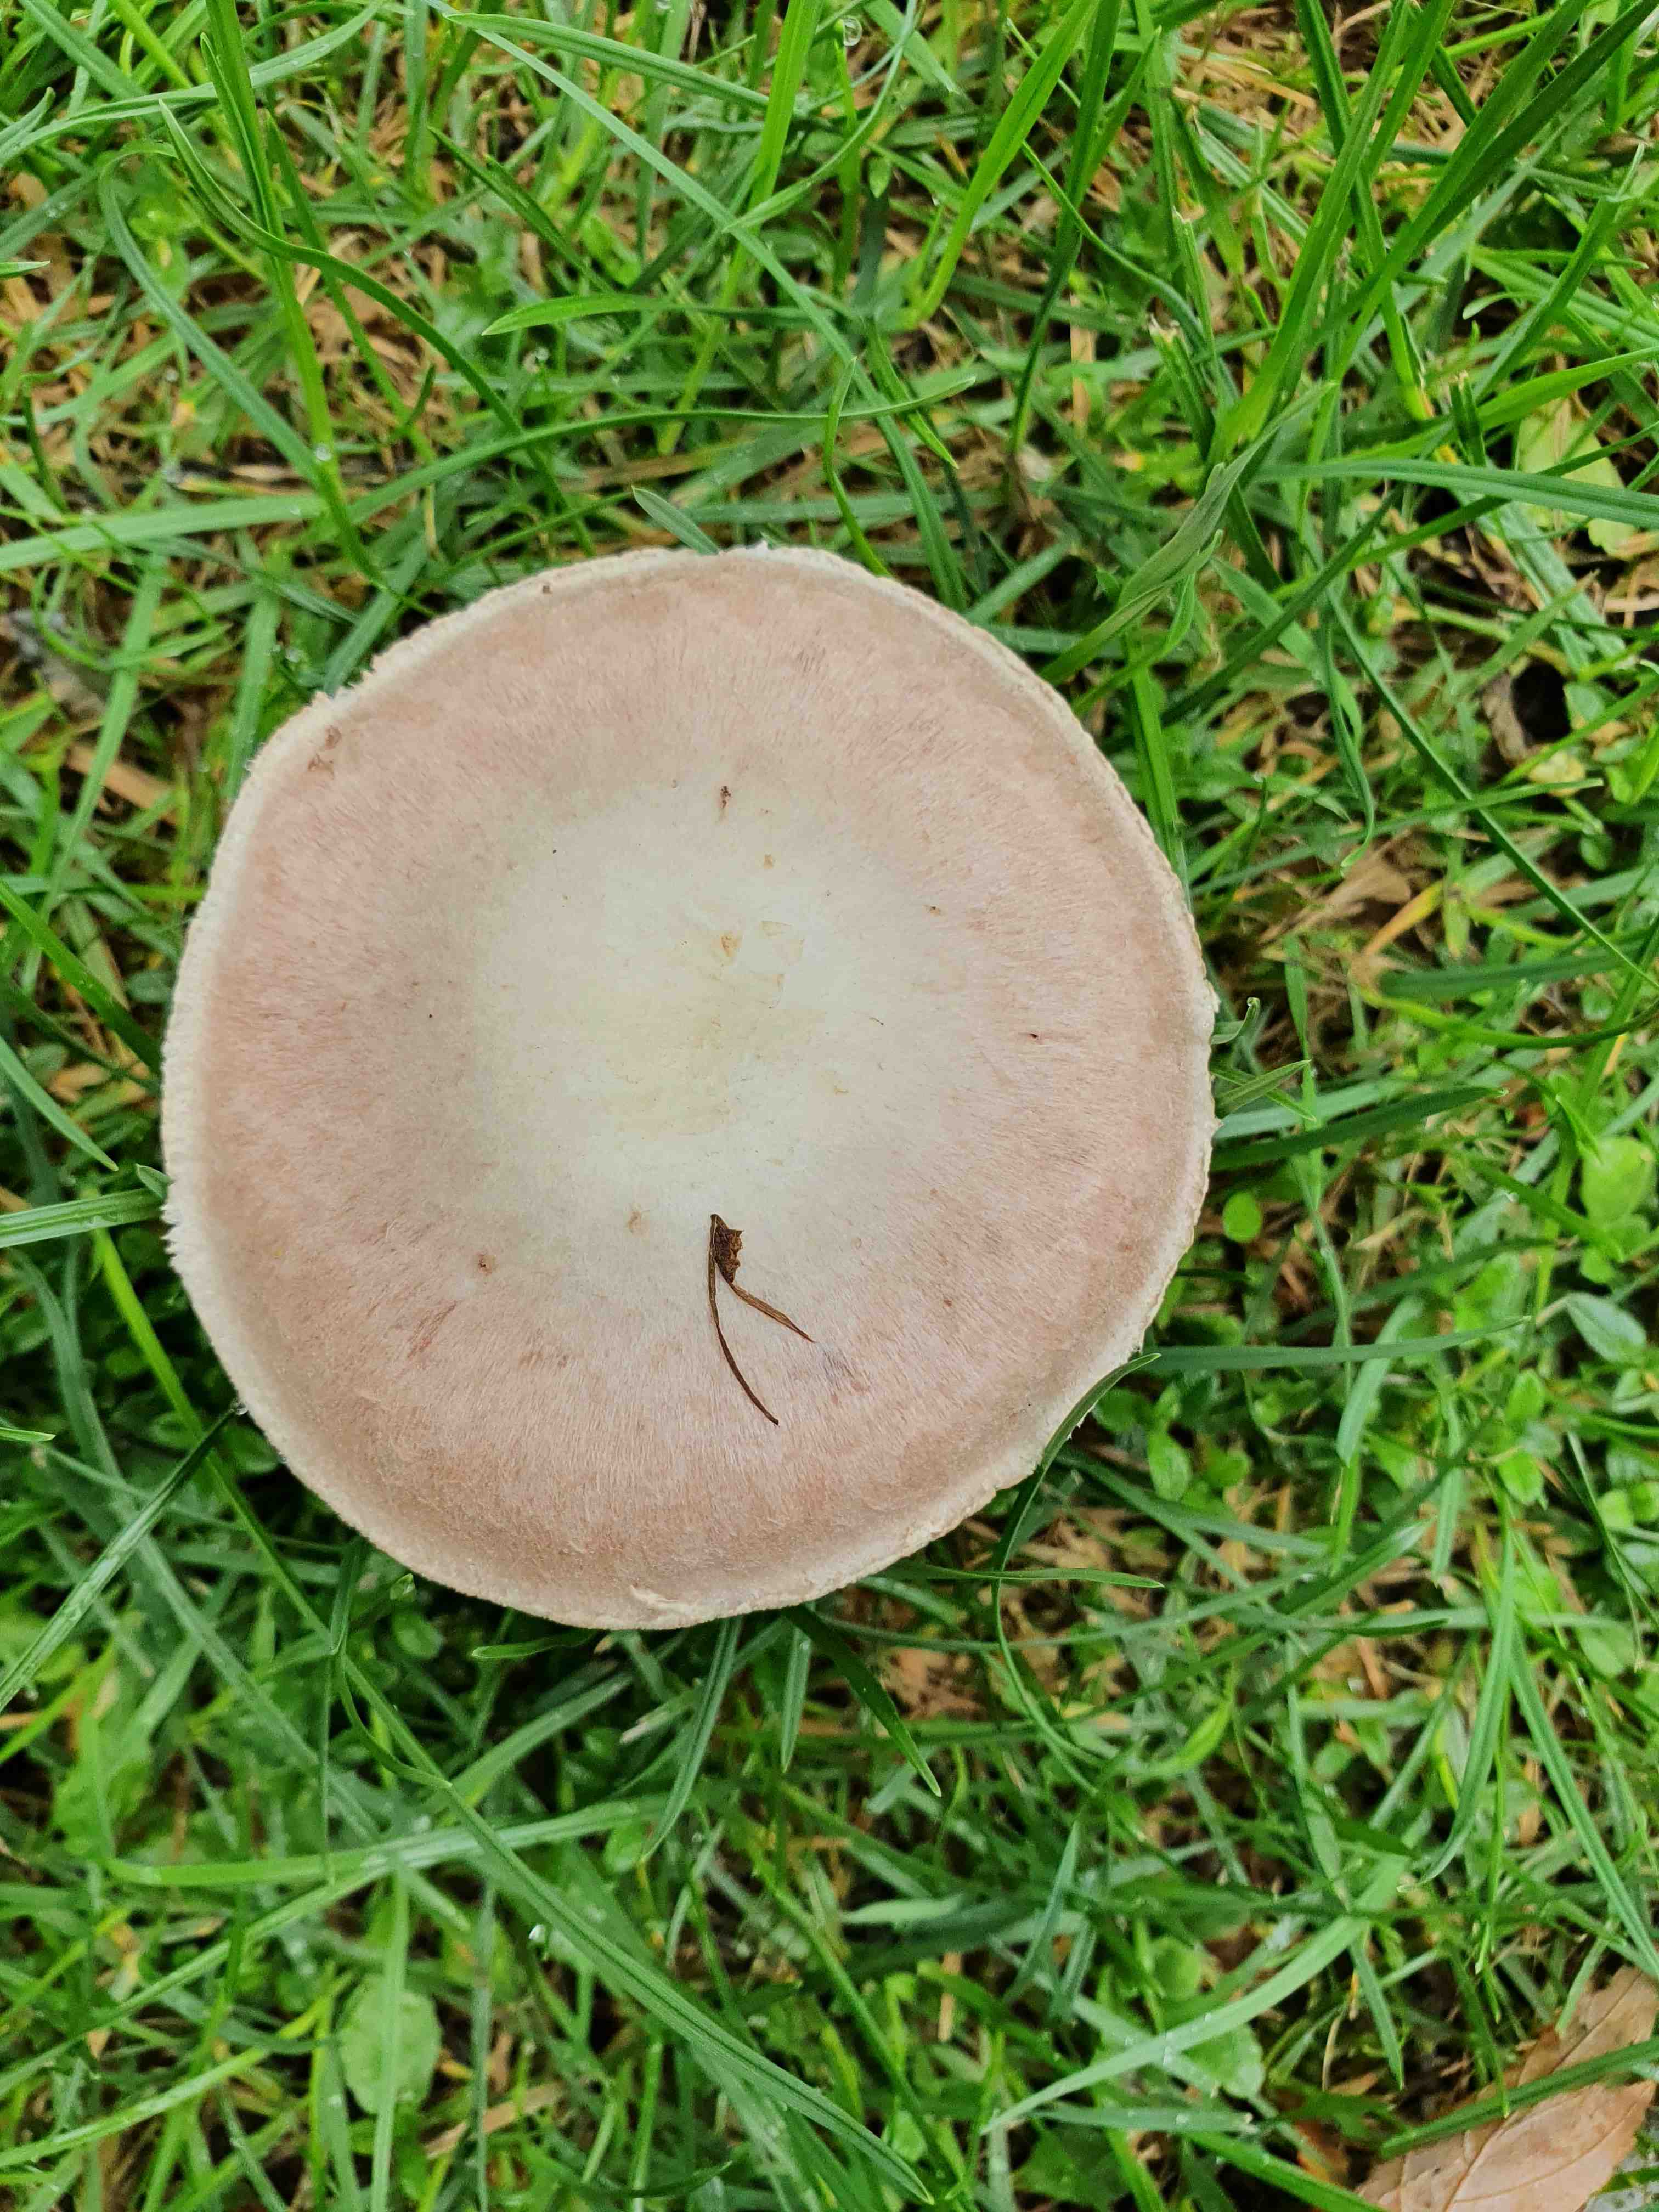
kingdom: Fungi
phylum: Basidiomycota
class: Agaricomycetes
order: Agaricales
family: Agaricaceae
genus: Agaricus
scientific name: Agaricus campestris
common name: mark-champignon
